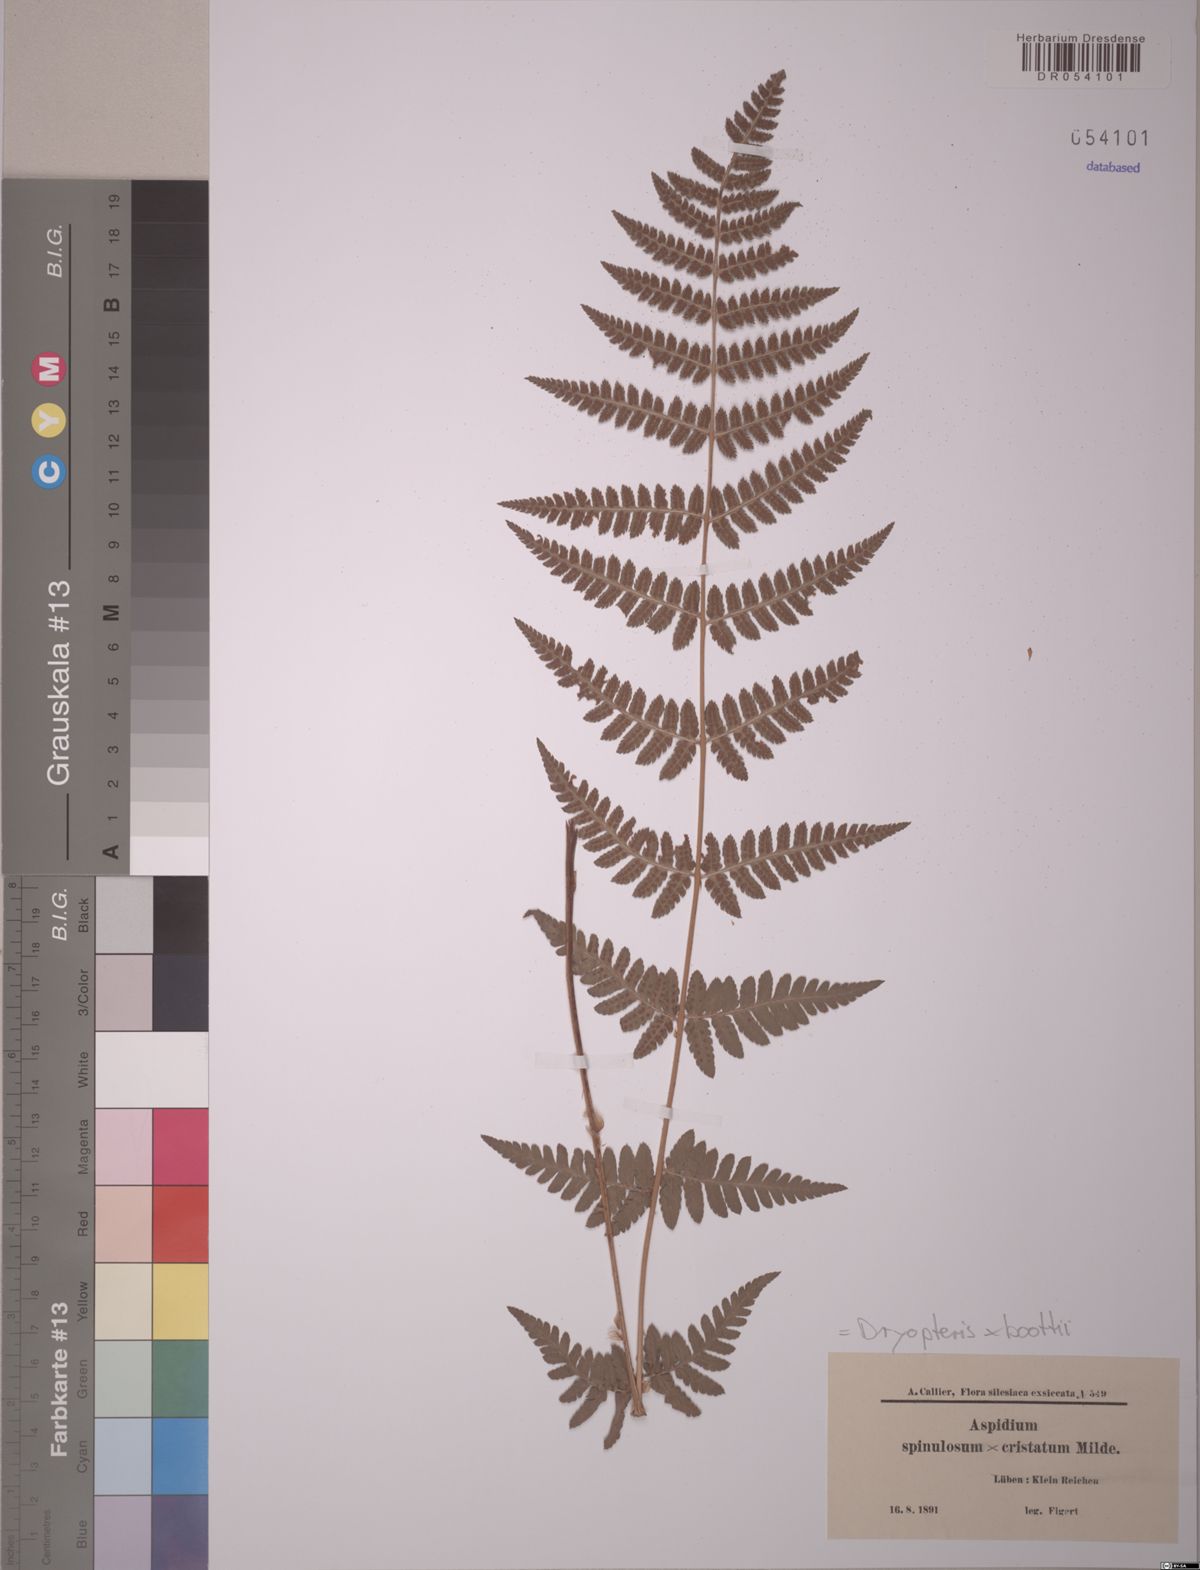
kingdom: Plantae
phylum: Tracheophyta
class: Polypodiopsida
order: Polypodiales
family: Dryopteridaceae
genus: Dryopteris
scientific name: Dryopteris boottii
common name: Boott's fern
